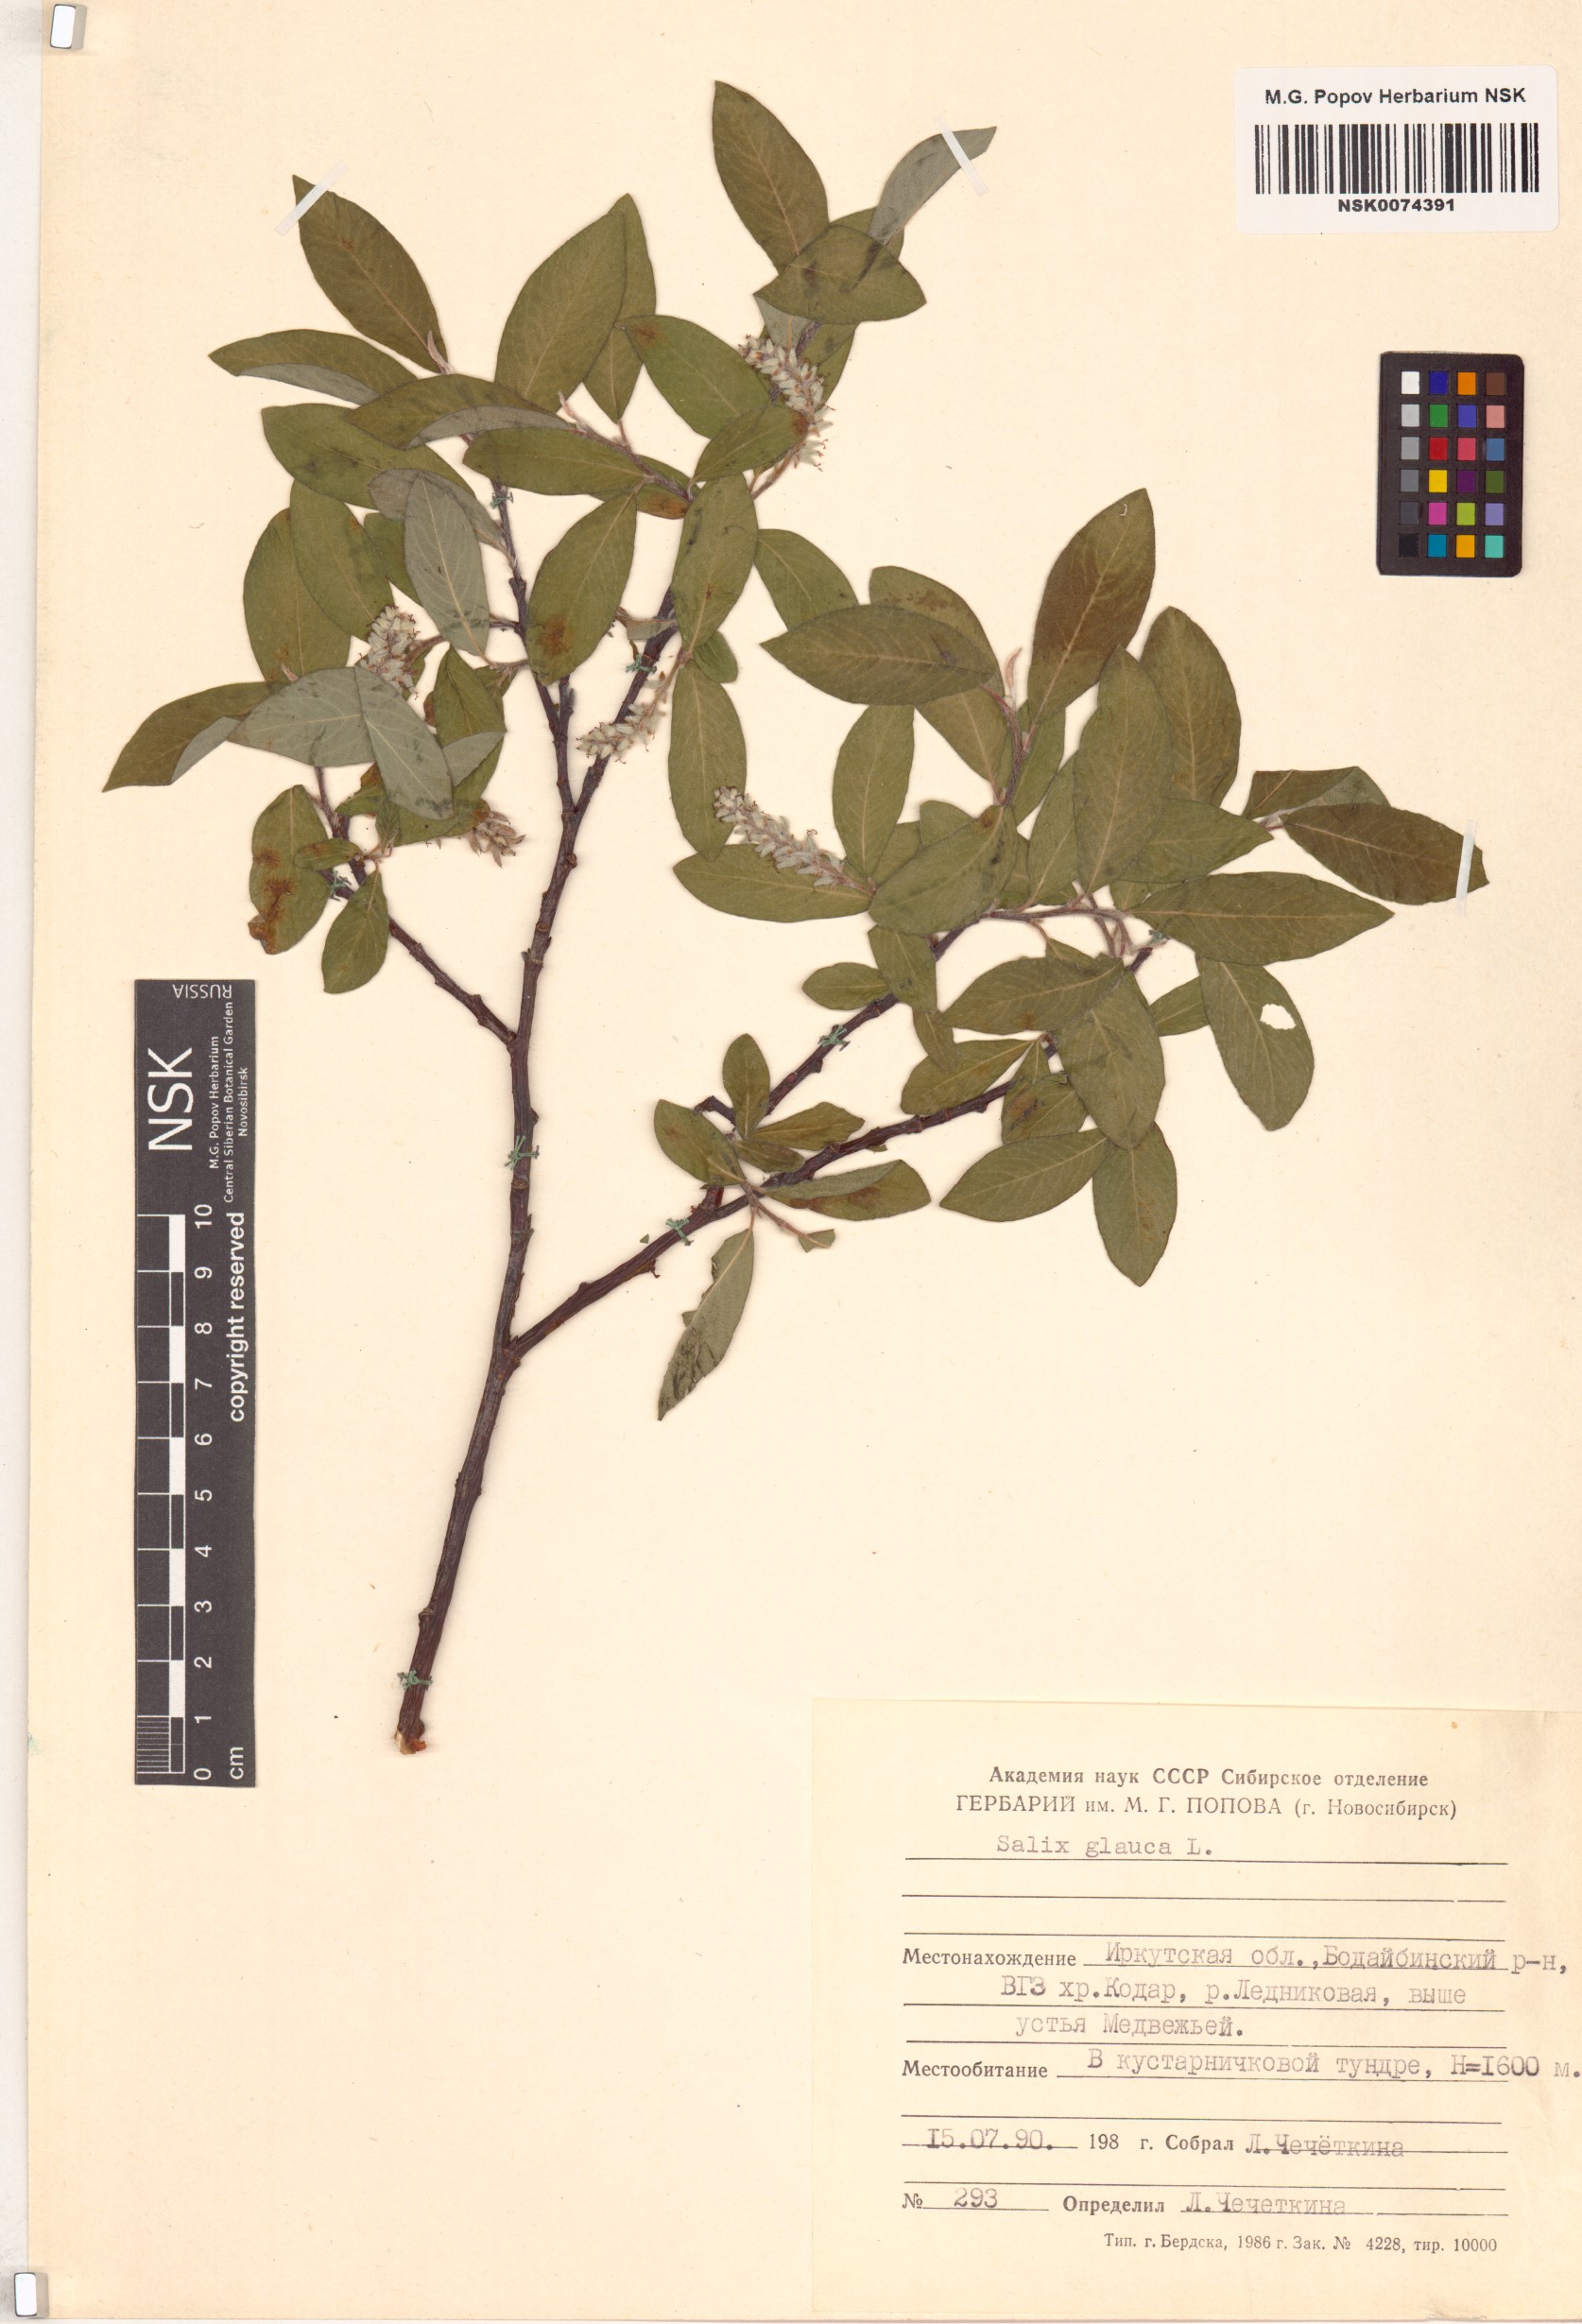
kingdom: Plantae
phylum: Tracheophyta
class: Magnoliopsida
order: Malpighiales
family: Salicaceae
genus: Salix
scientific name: Salix glauca
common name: Glaucous willow
